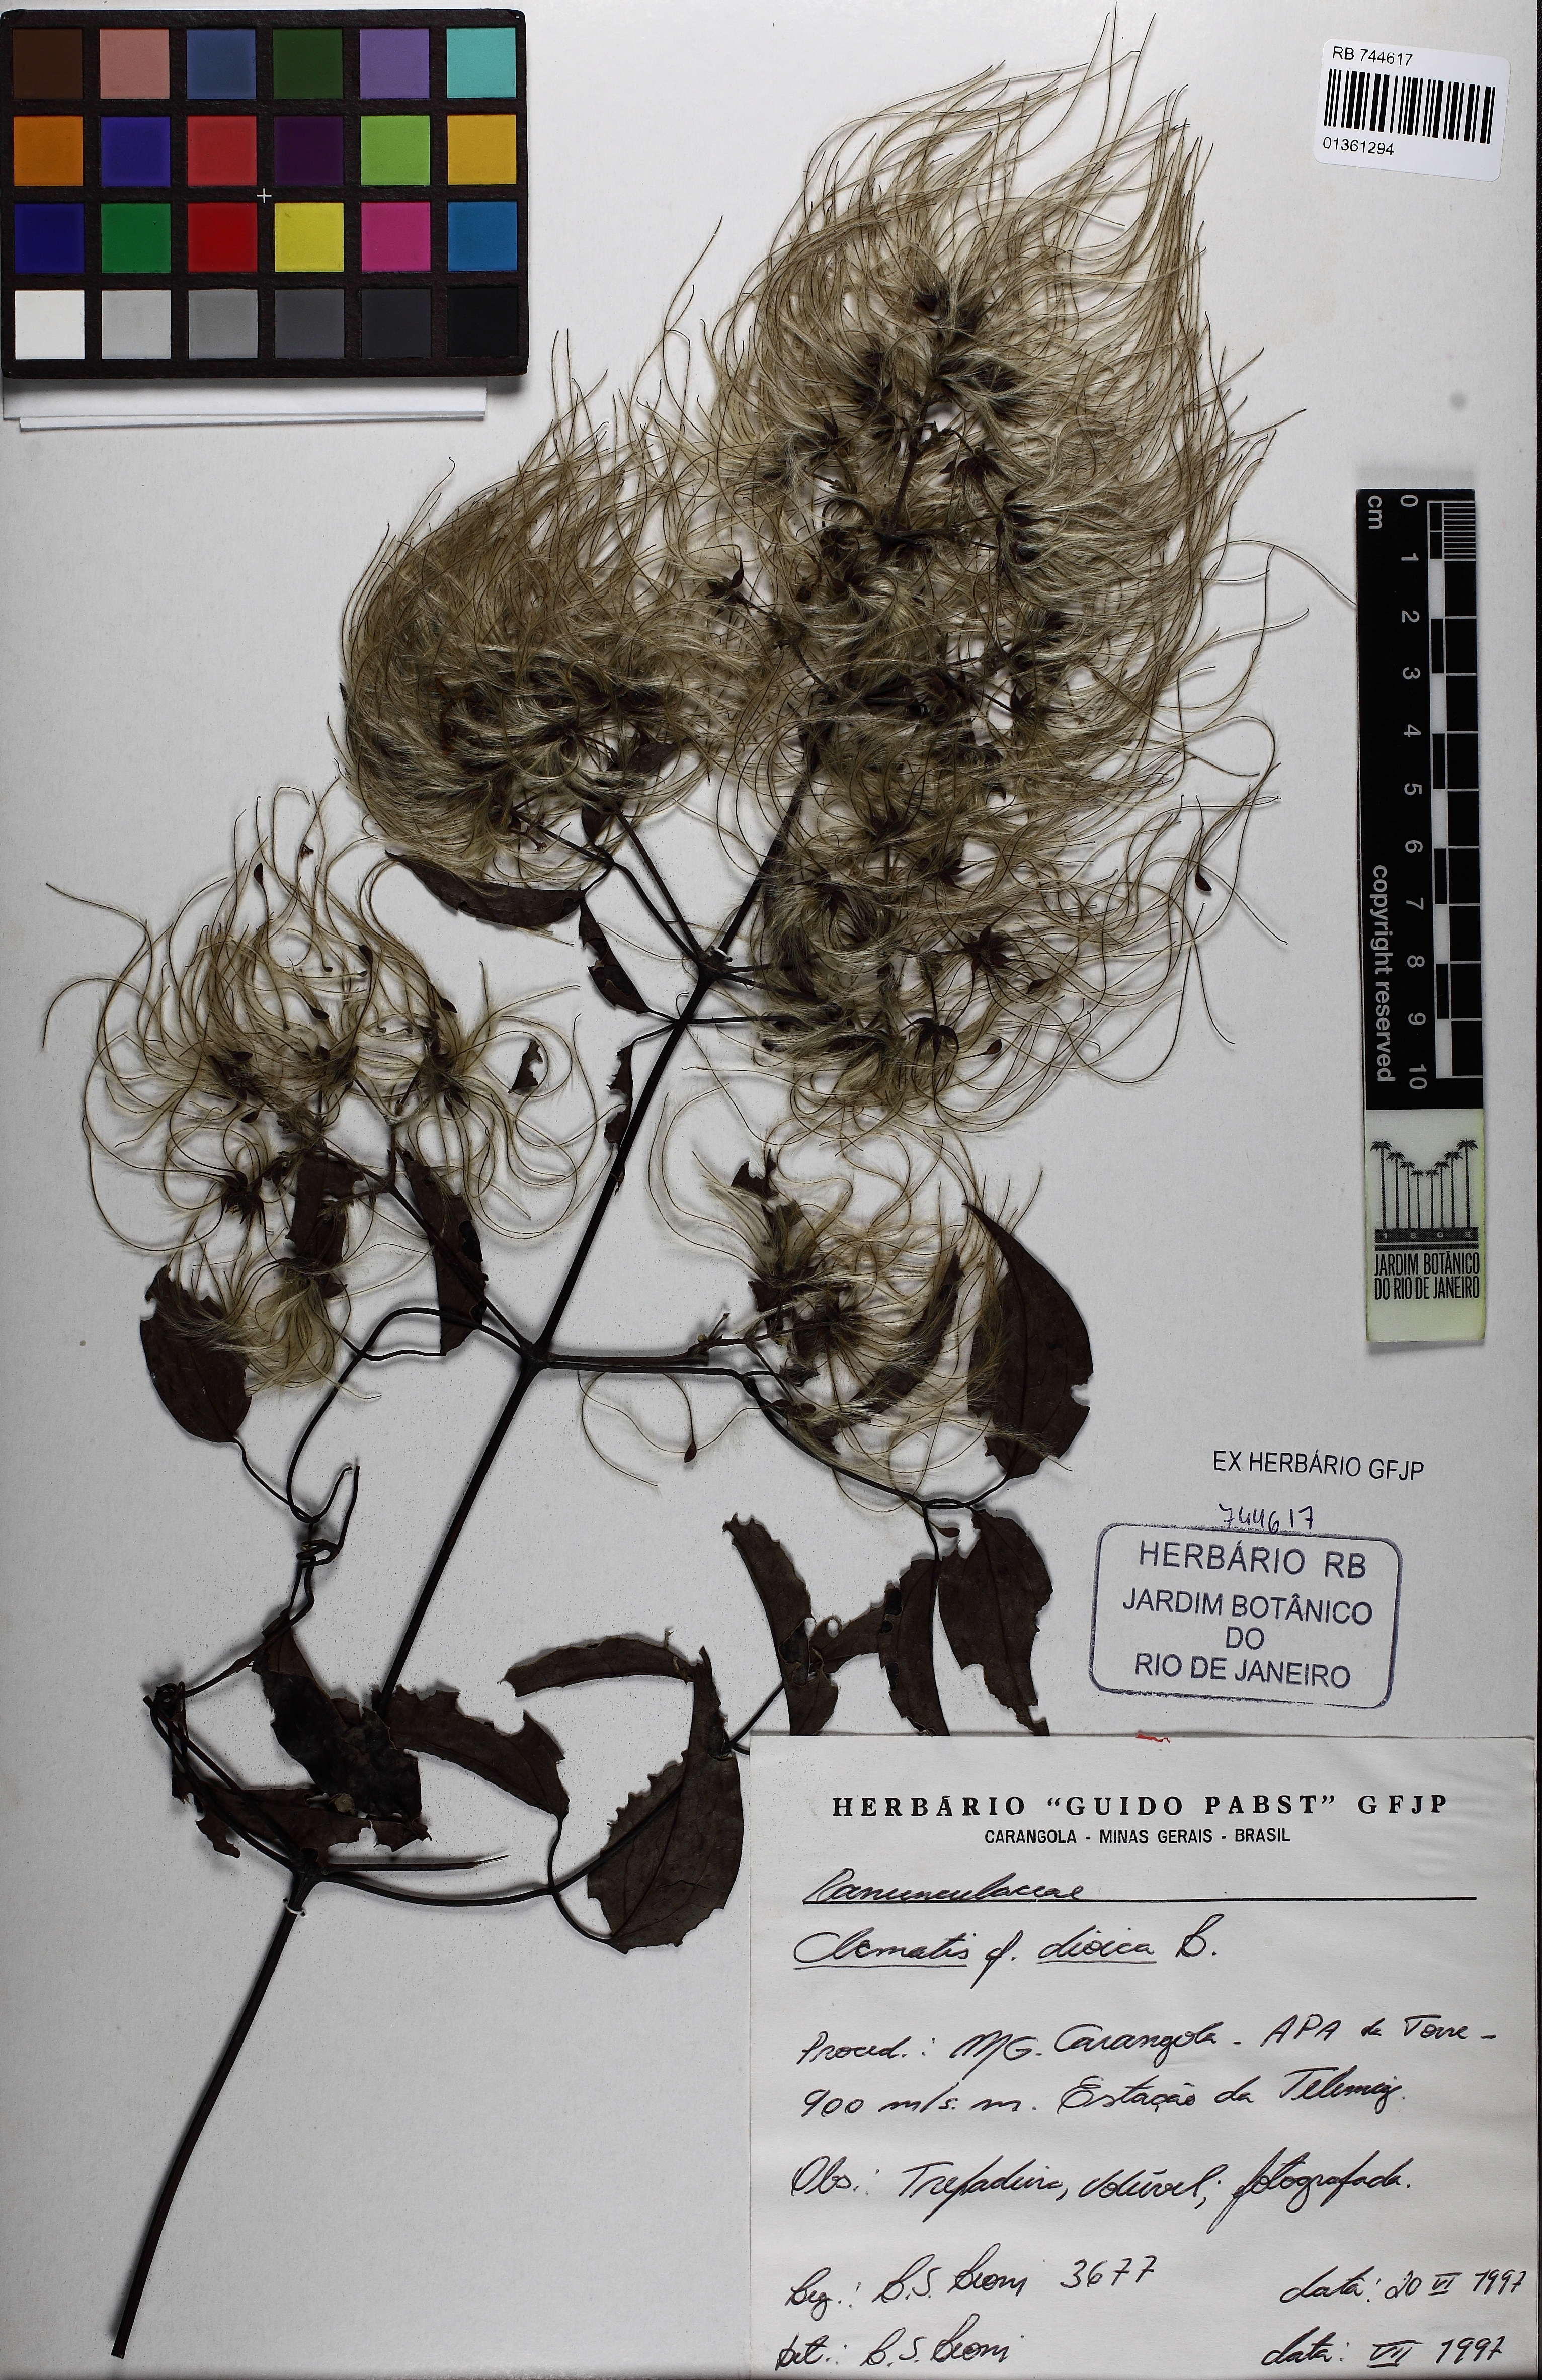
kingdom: Plantae
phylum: Tracheophyta
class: Magnoliopsida
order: Ranunculales
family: Ranunculaceae
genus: Clematis
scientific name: Clematis dioica
